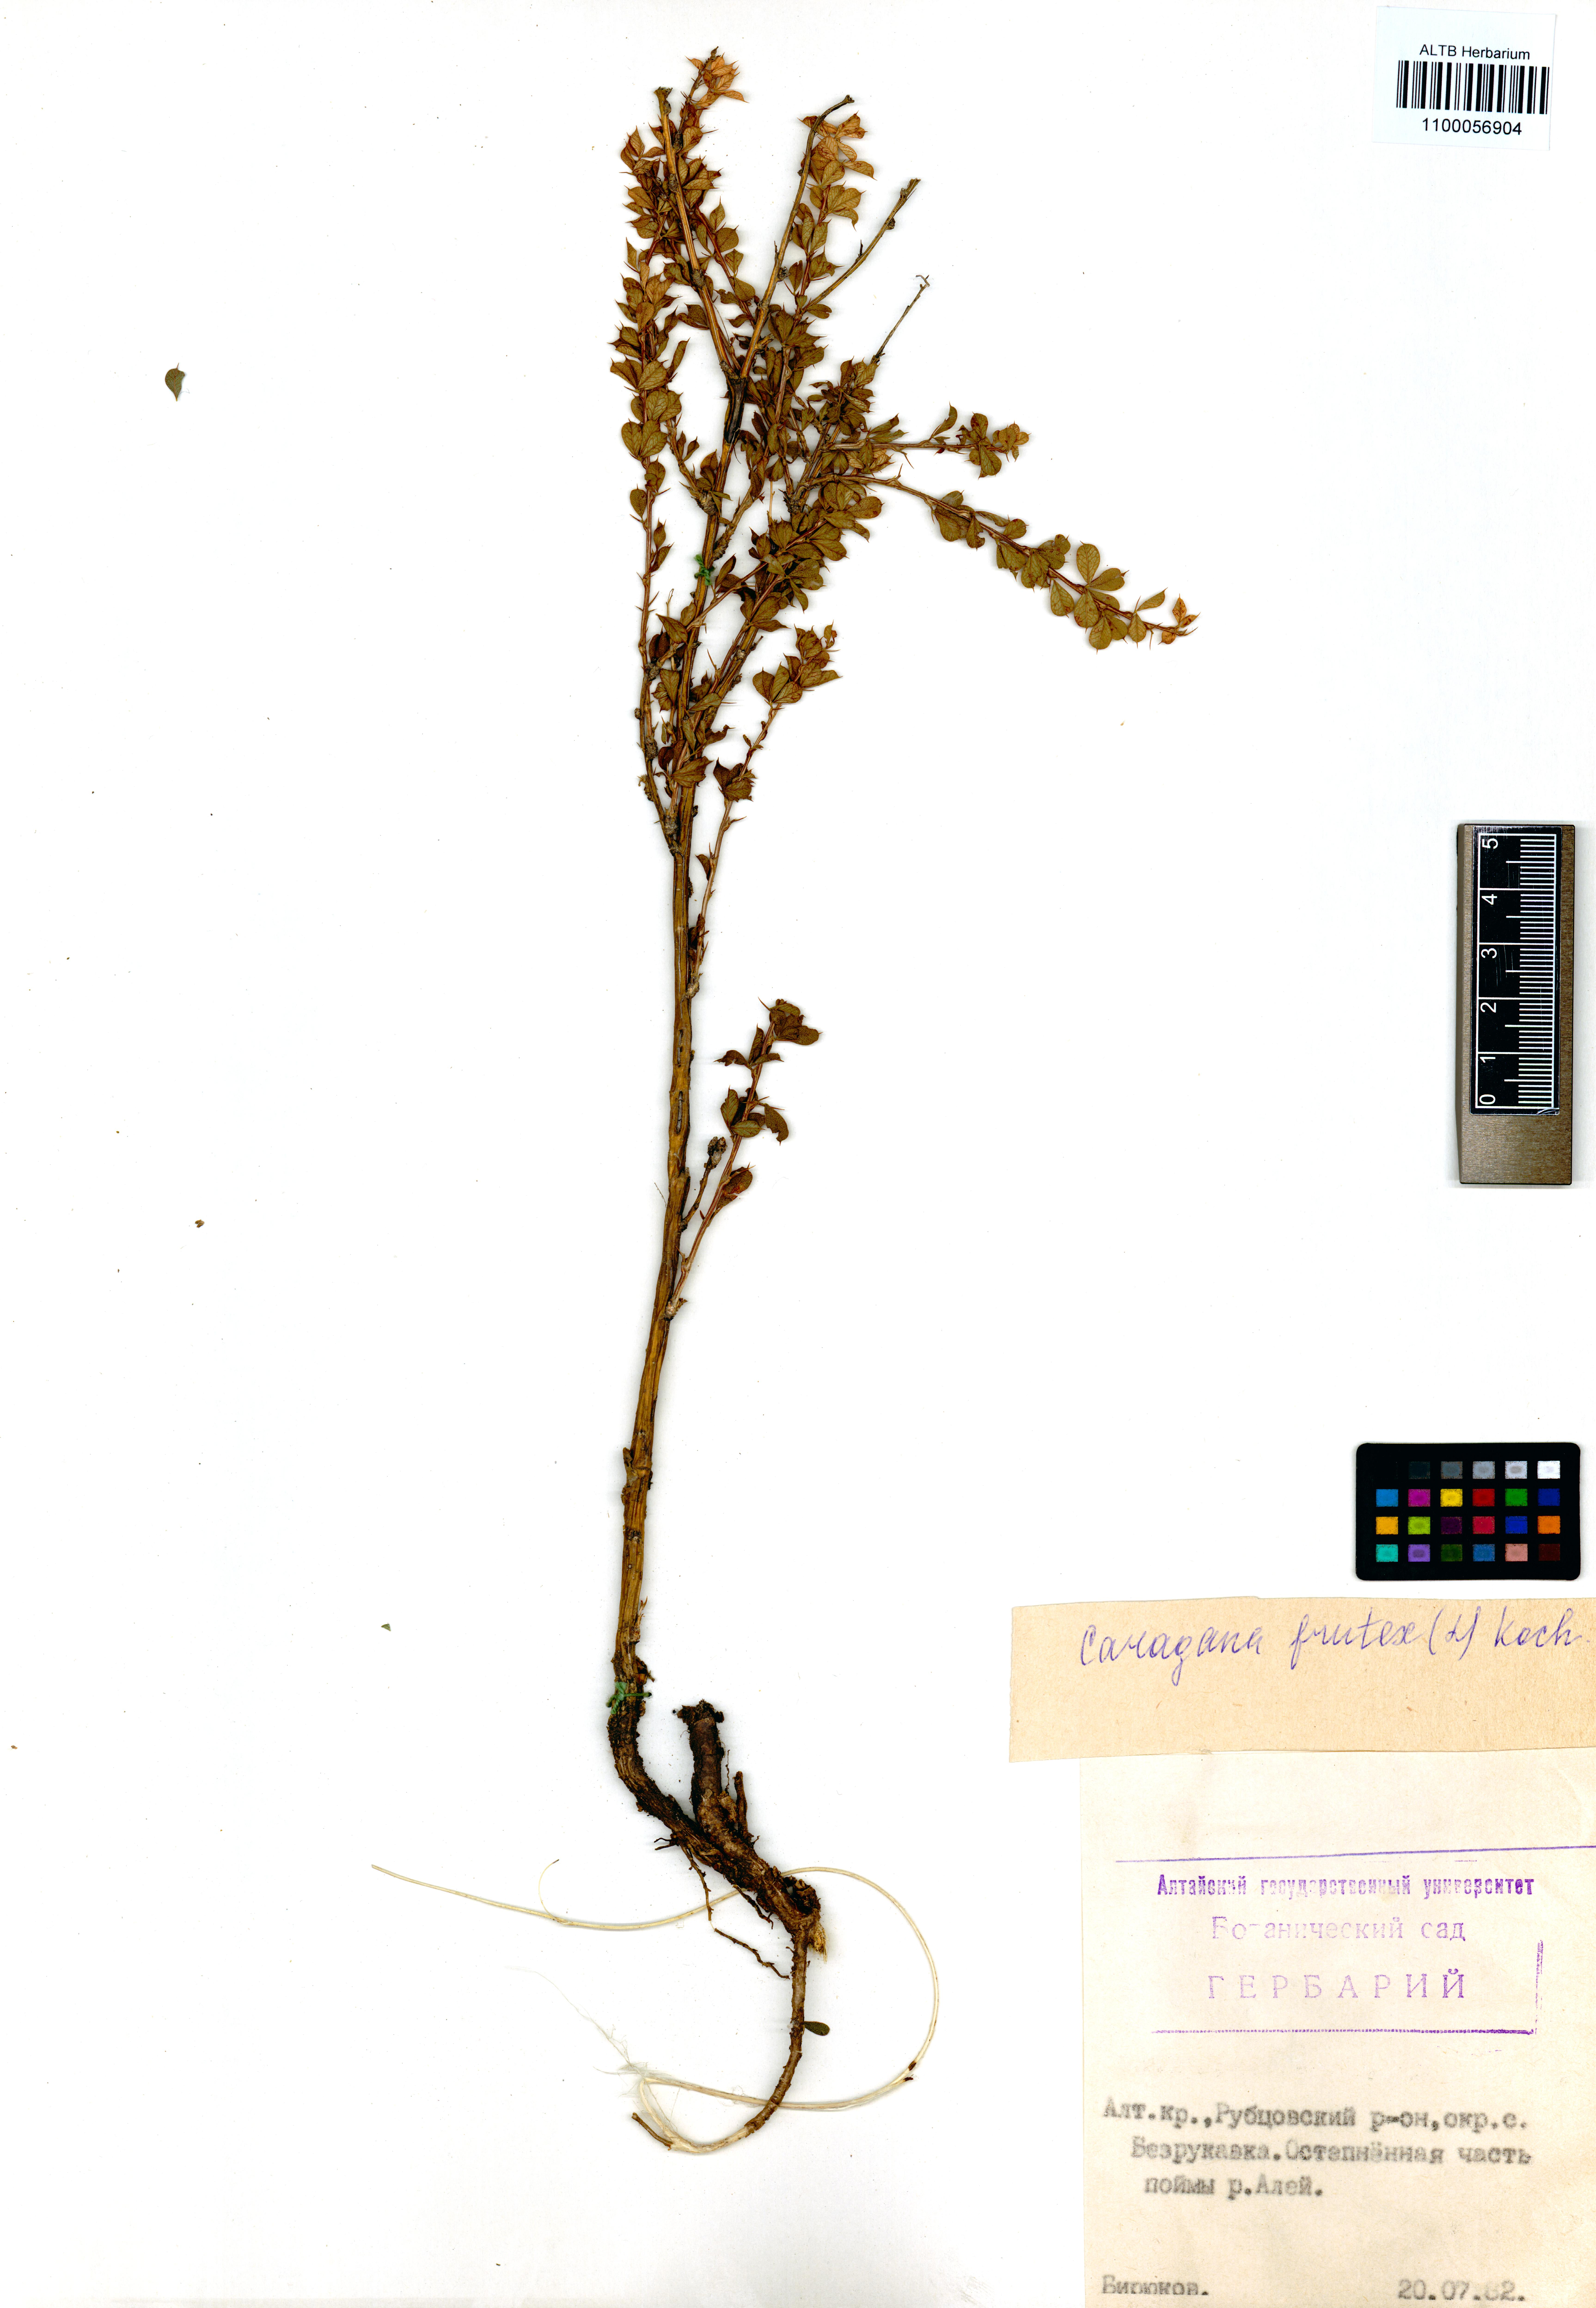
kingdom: Plantae
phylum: Tracheophyta
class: Magnoliopsida
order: Fabales
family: Fabaceae
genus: Caragana
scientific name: Caragana frutex
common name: Russian peashrub
